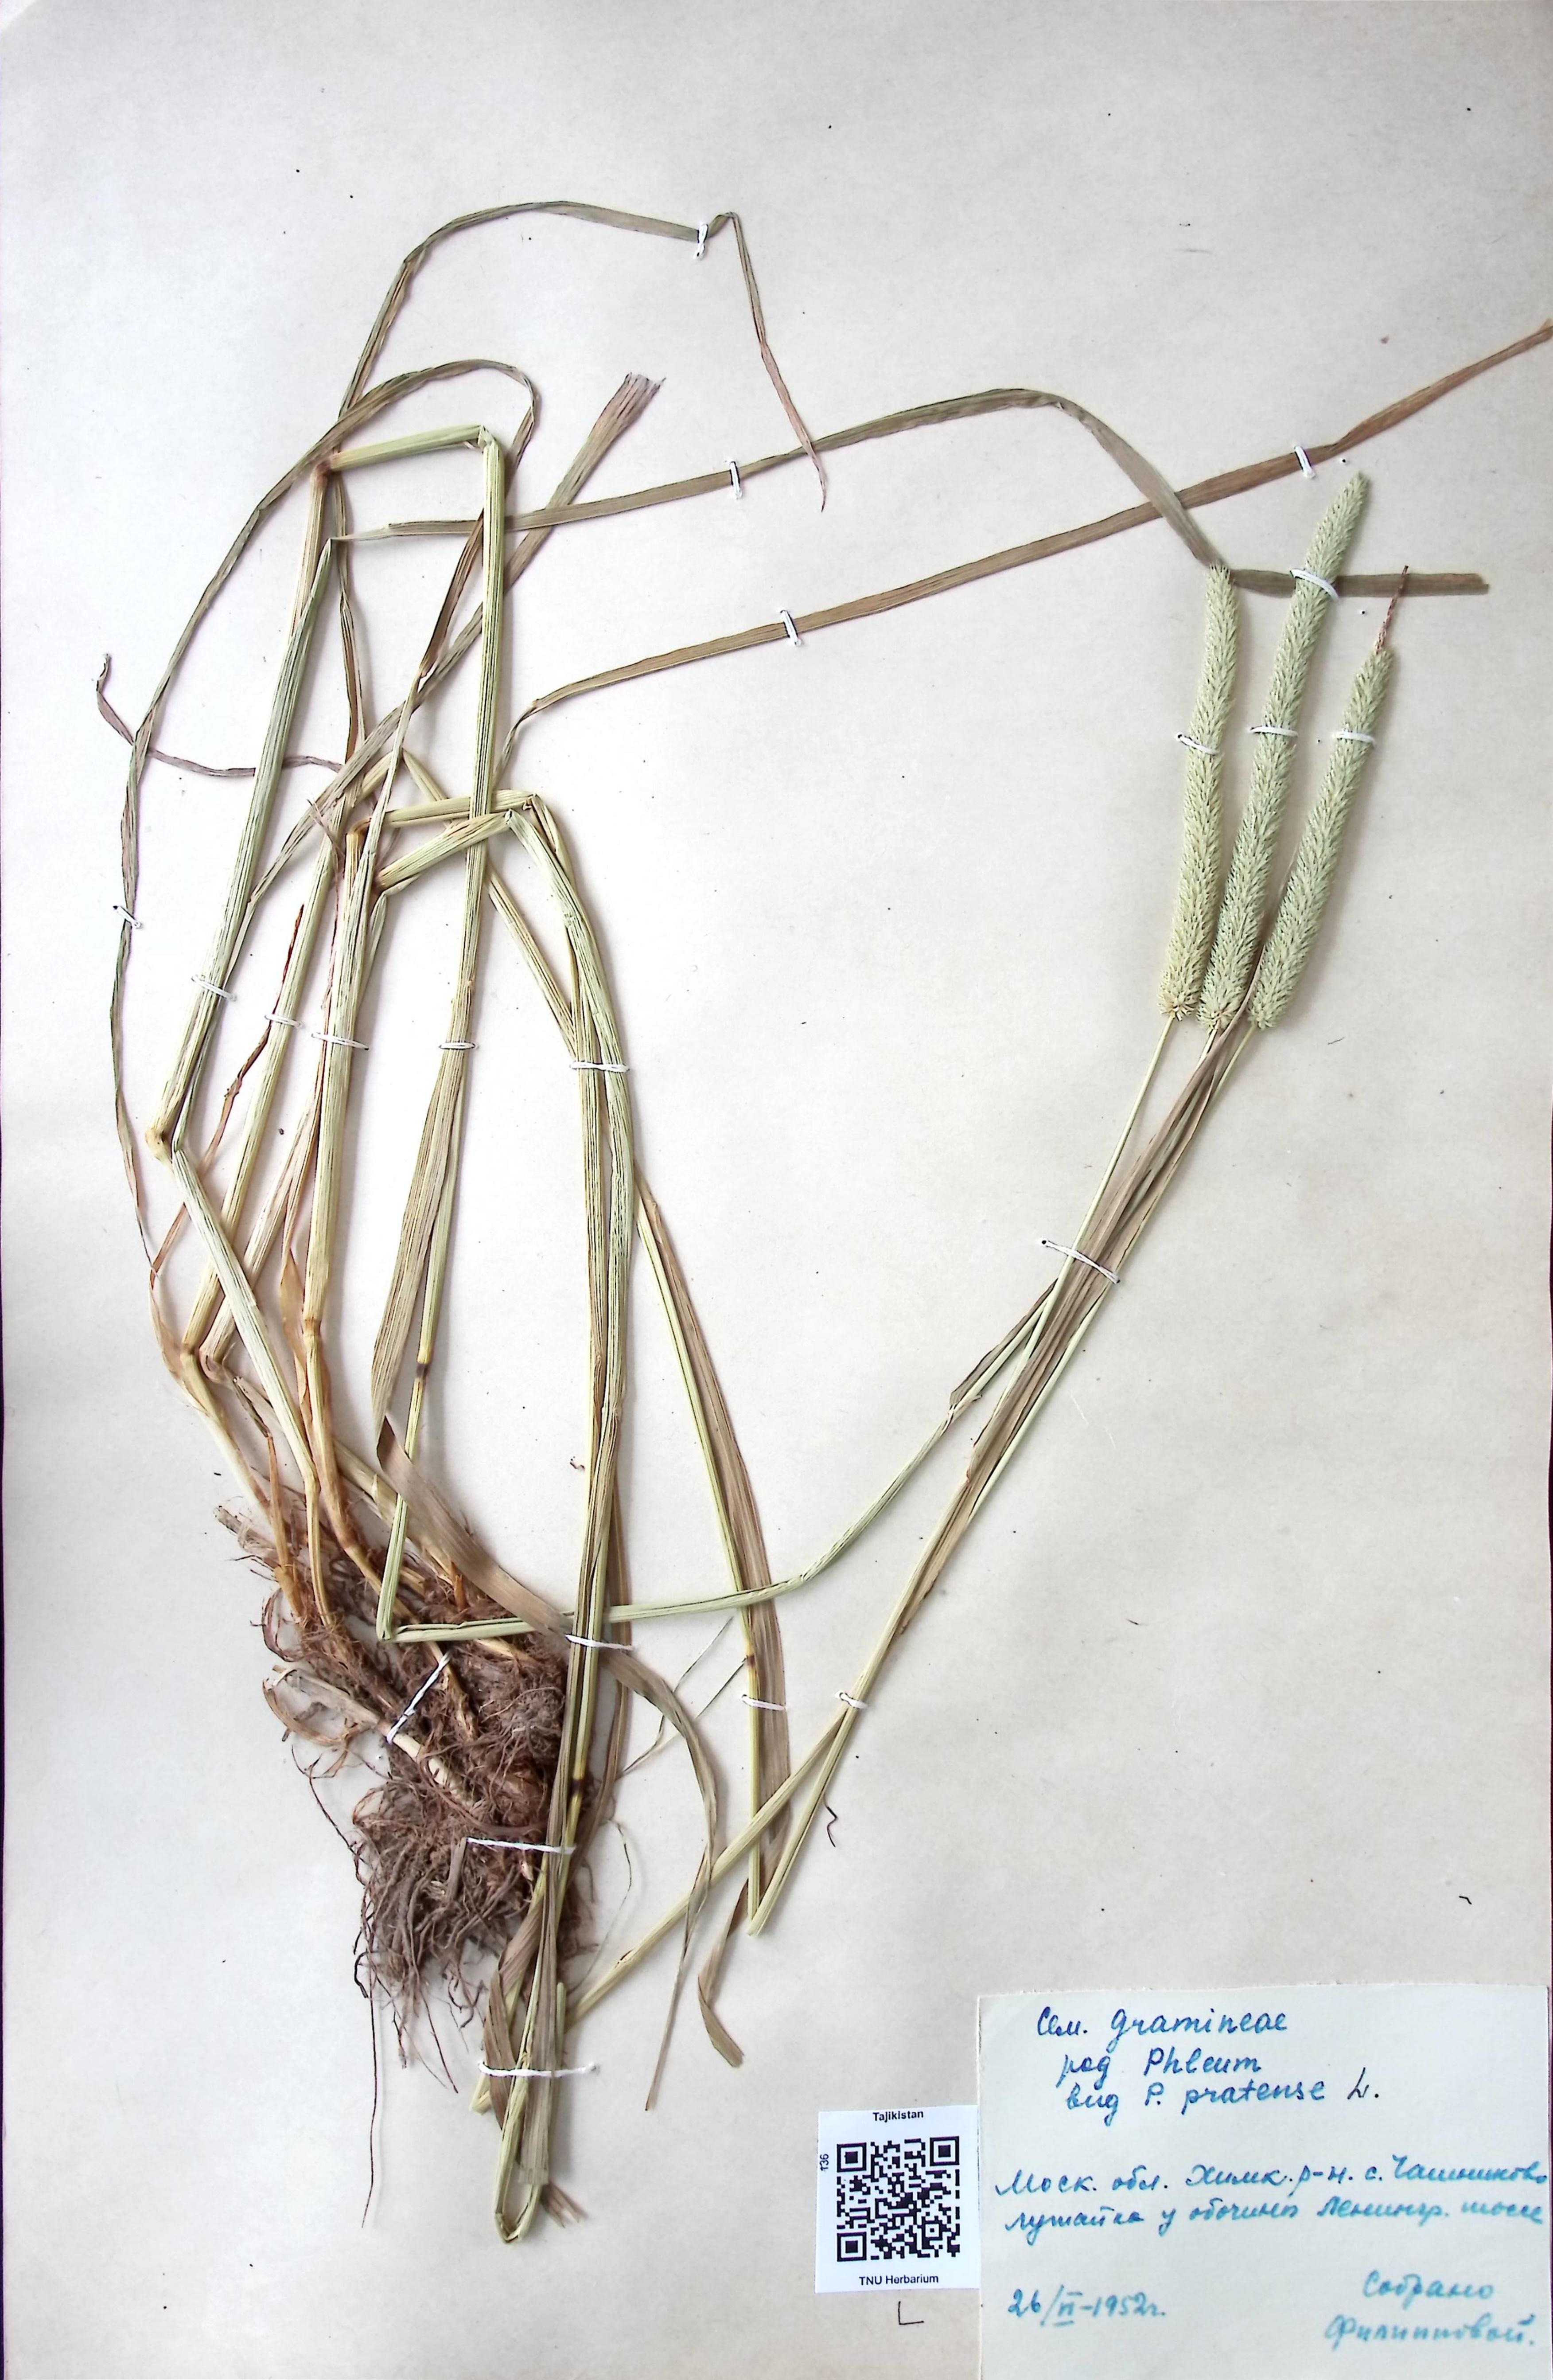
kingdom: Plantae
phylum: Tracheophyta
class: Liliopsida
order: Poales
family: Poaceae
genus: Phleum
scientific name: Phleum pratense
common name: Timothy grass
